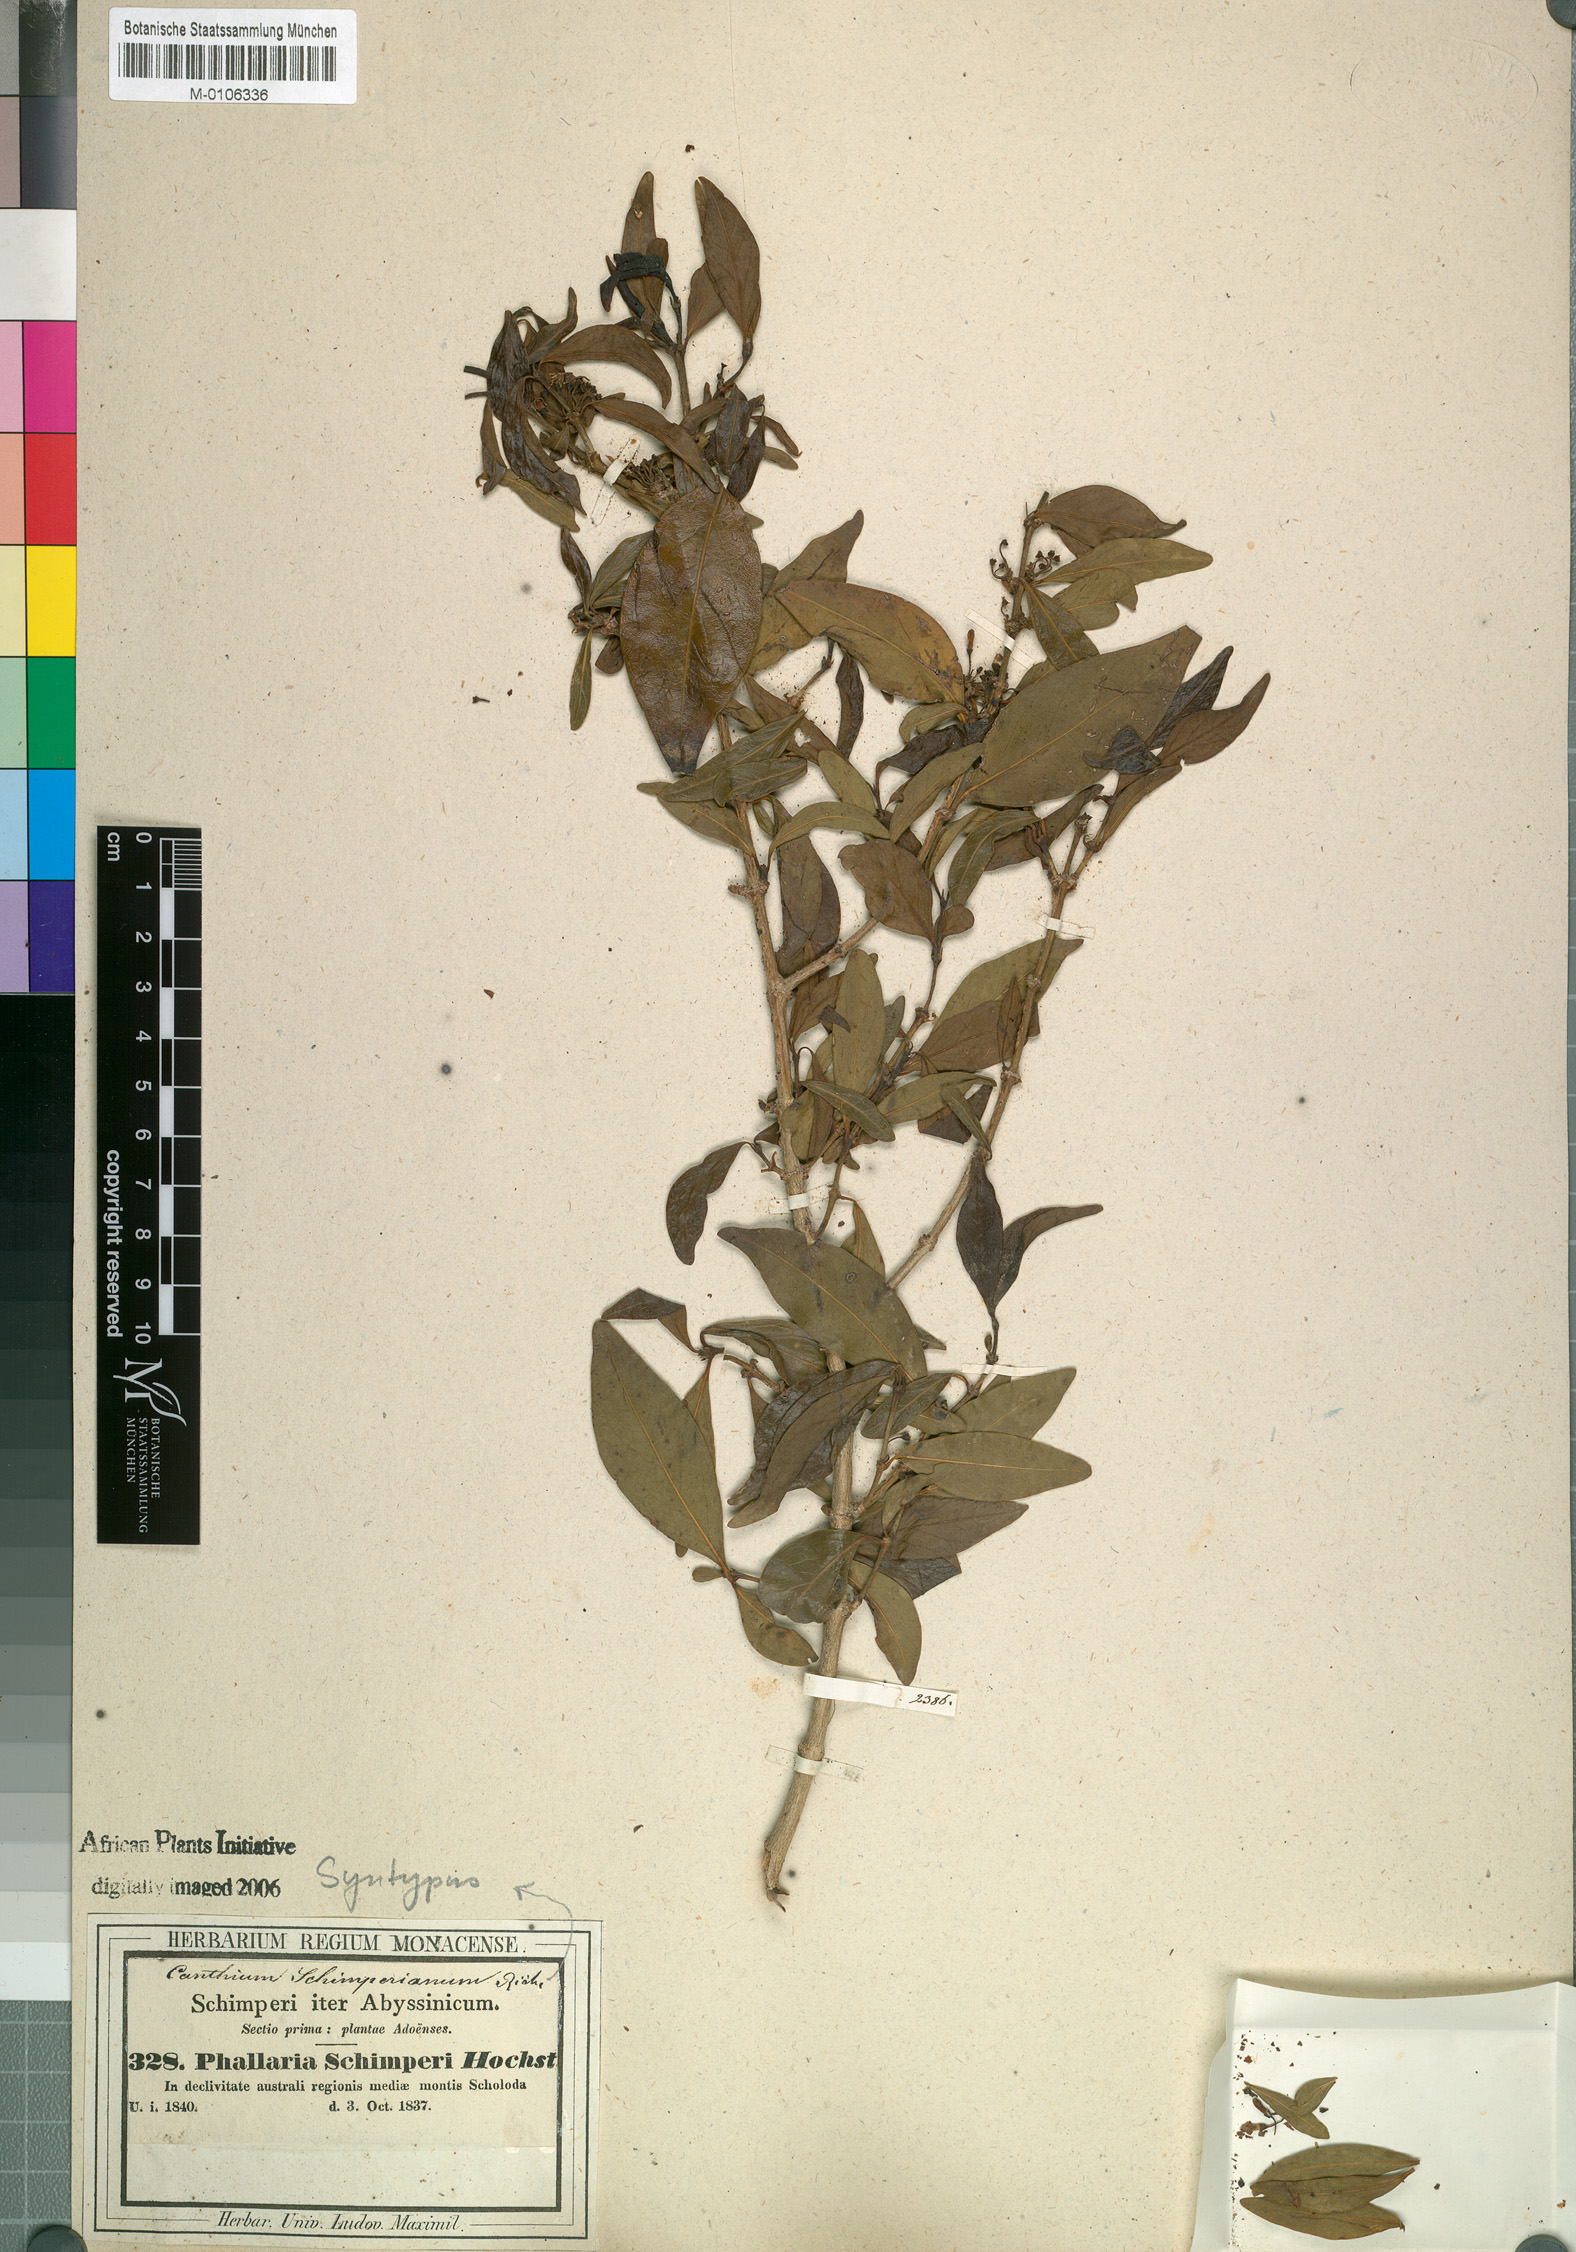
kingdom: Plantae
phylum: Tracheophyta
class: Magnoliopsida
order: Gentianales
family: Rubiaceae
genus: Psydrax
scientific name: Psydrax schimperianus
